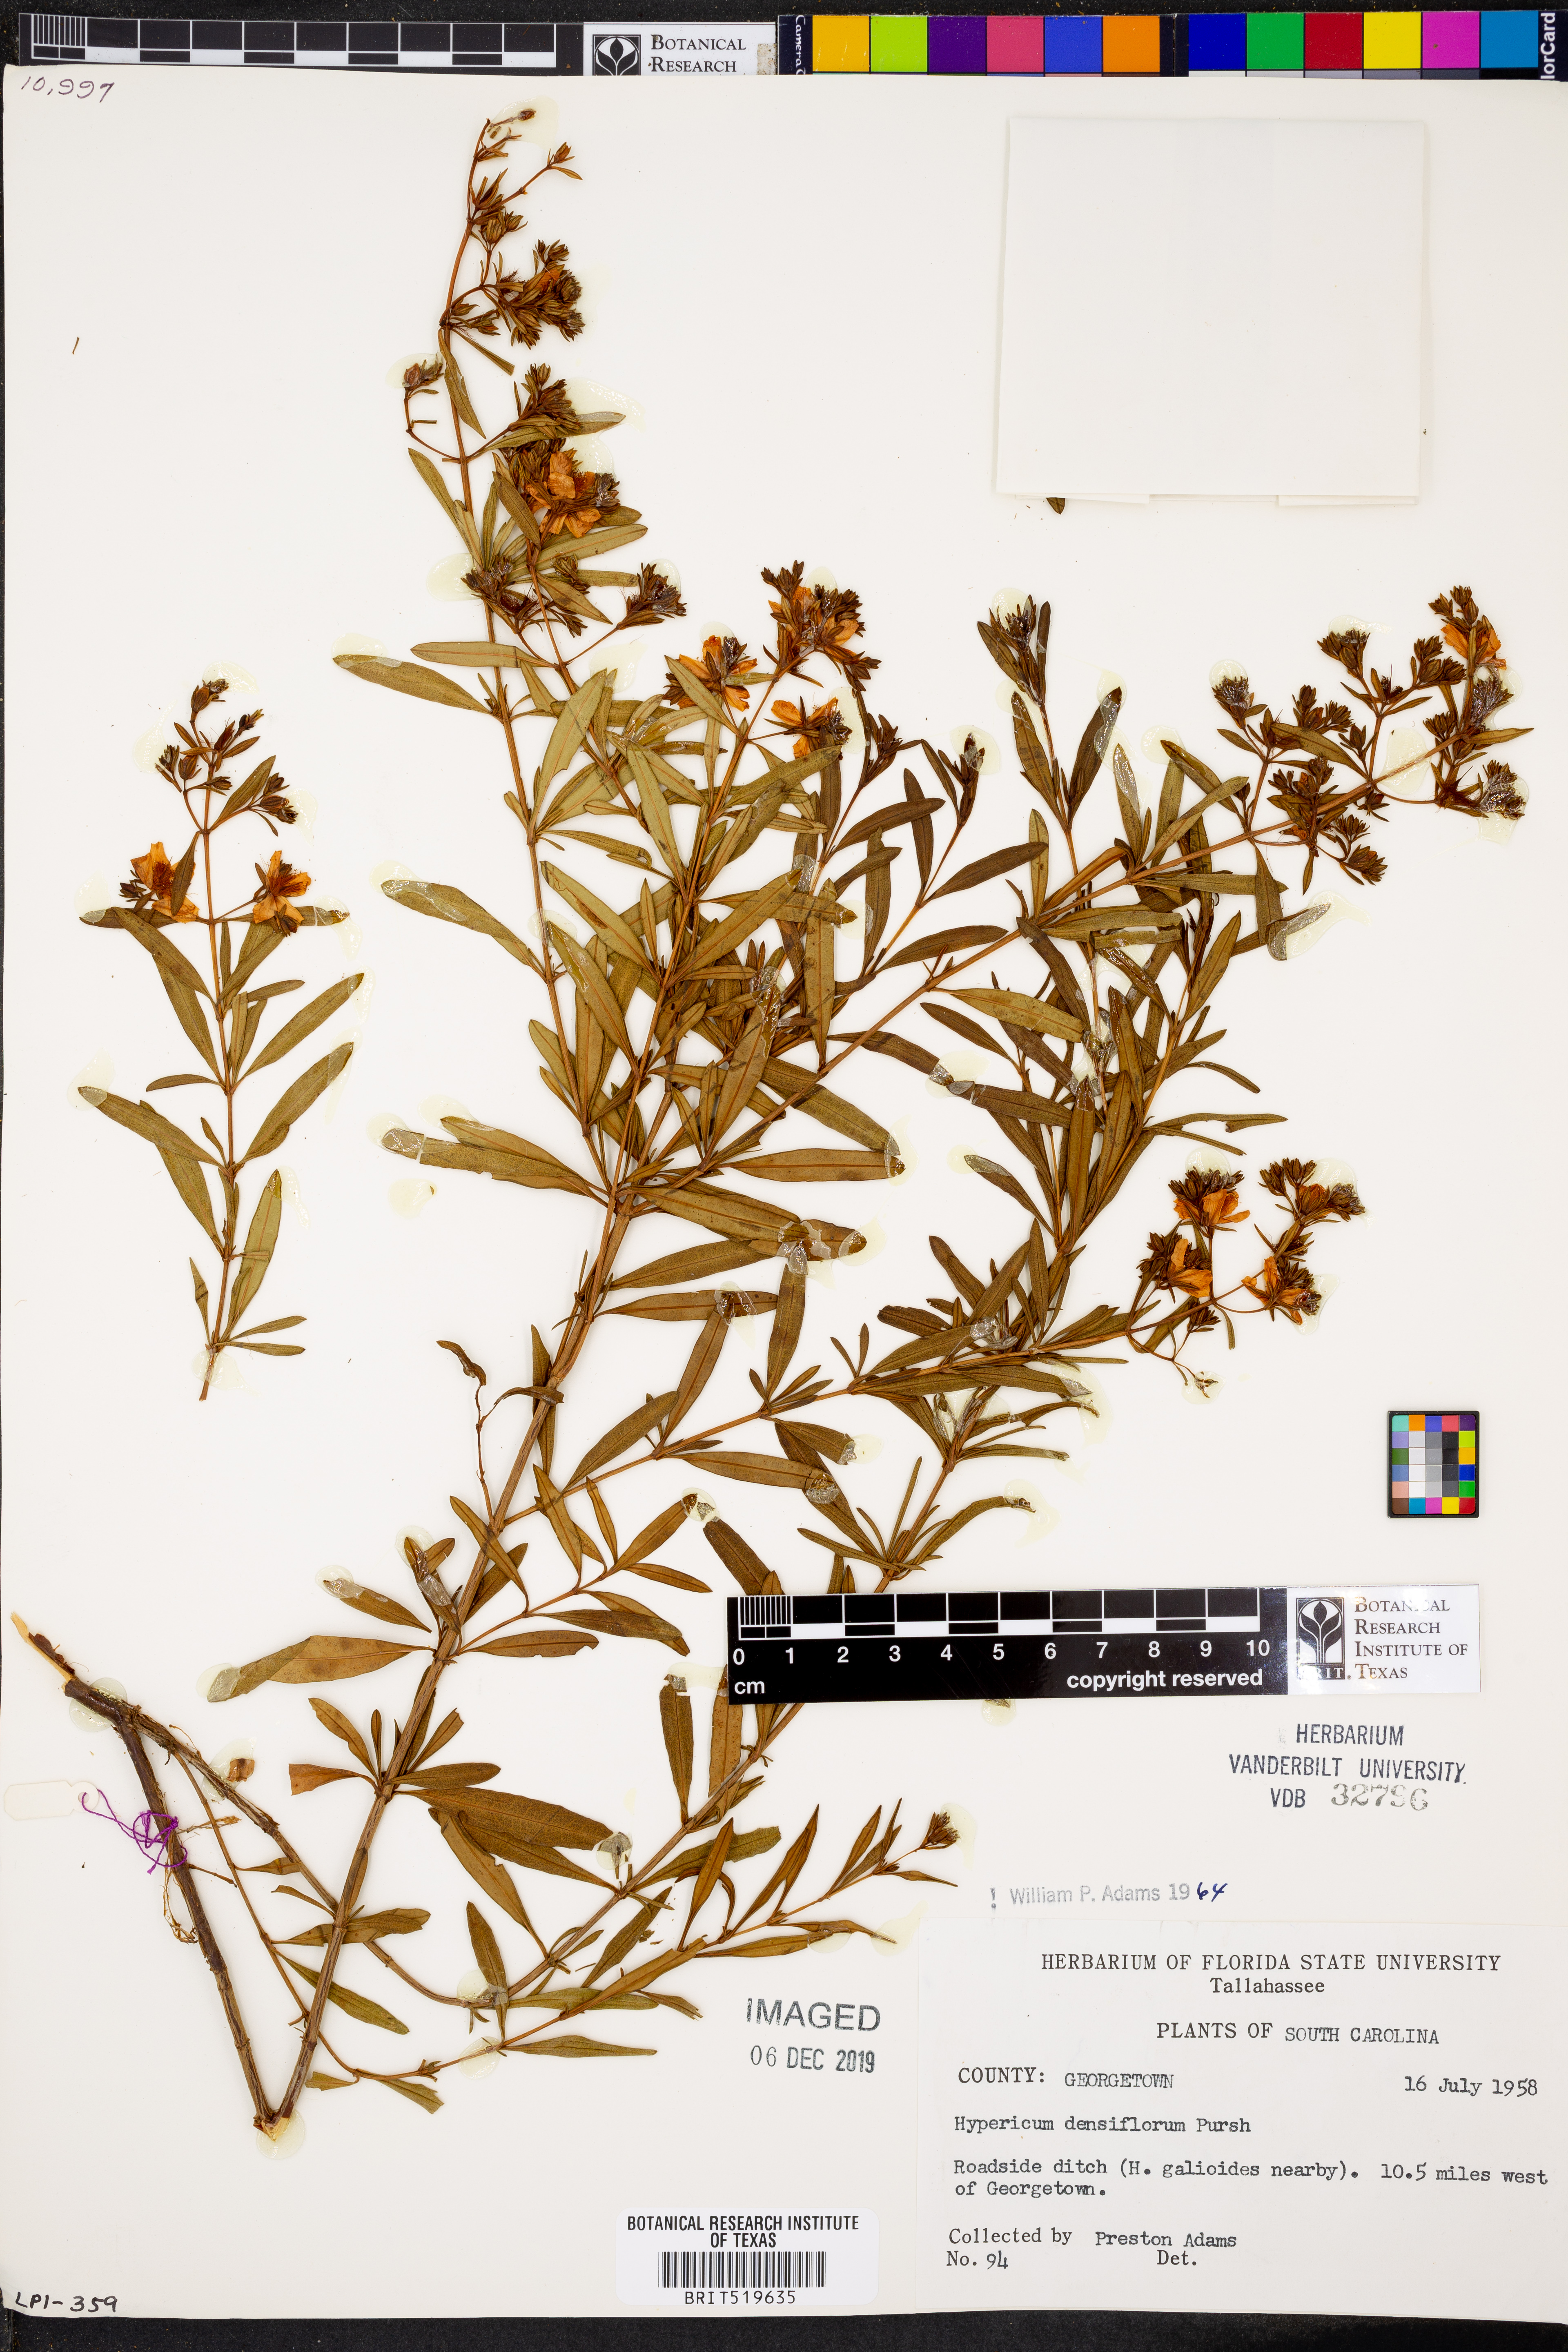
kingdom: Plantae
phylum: Tracheophyta
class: Magnoliopsida
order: Malpighiales
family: Hypericaceae
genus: Hypericum
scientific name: Hypericum densiflorum
